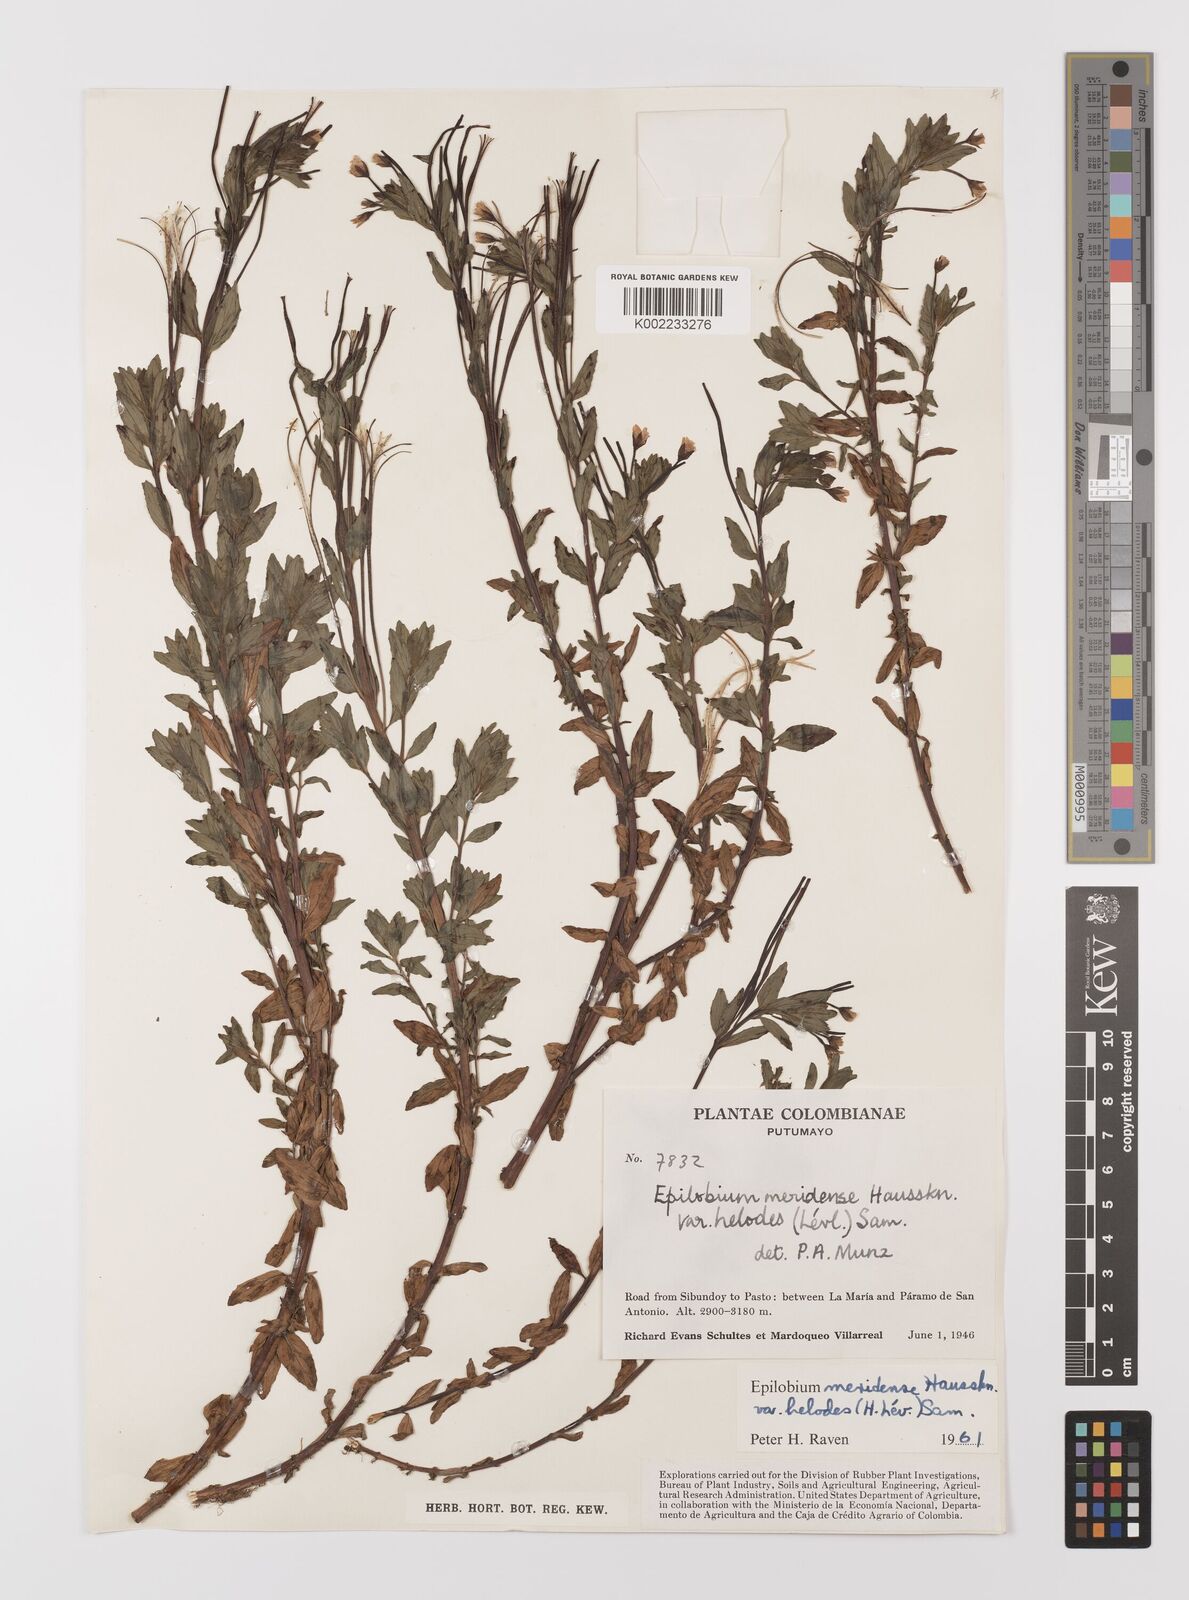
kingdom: Plantae
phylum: Tracheophyta
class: Magnoliopsida
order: Myrtales
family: Onagraceae
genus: Epilobium
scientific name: Epilobium denticulatum
